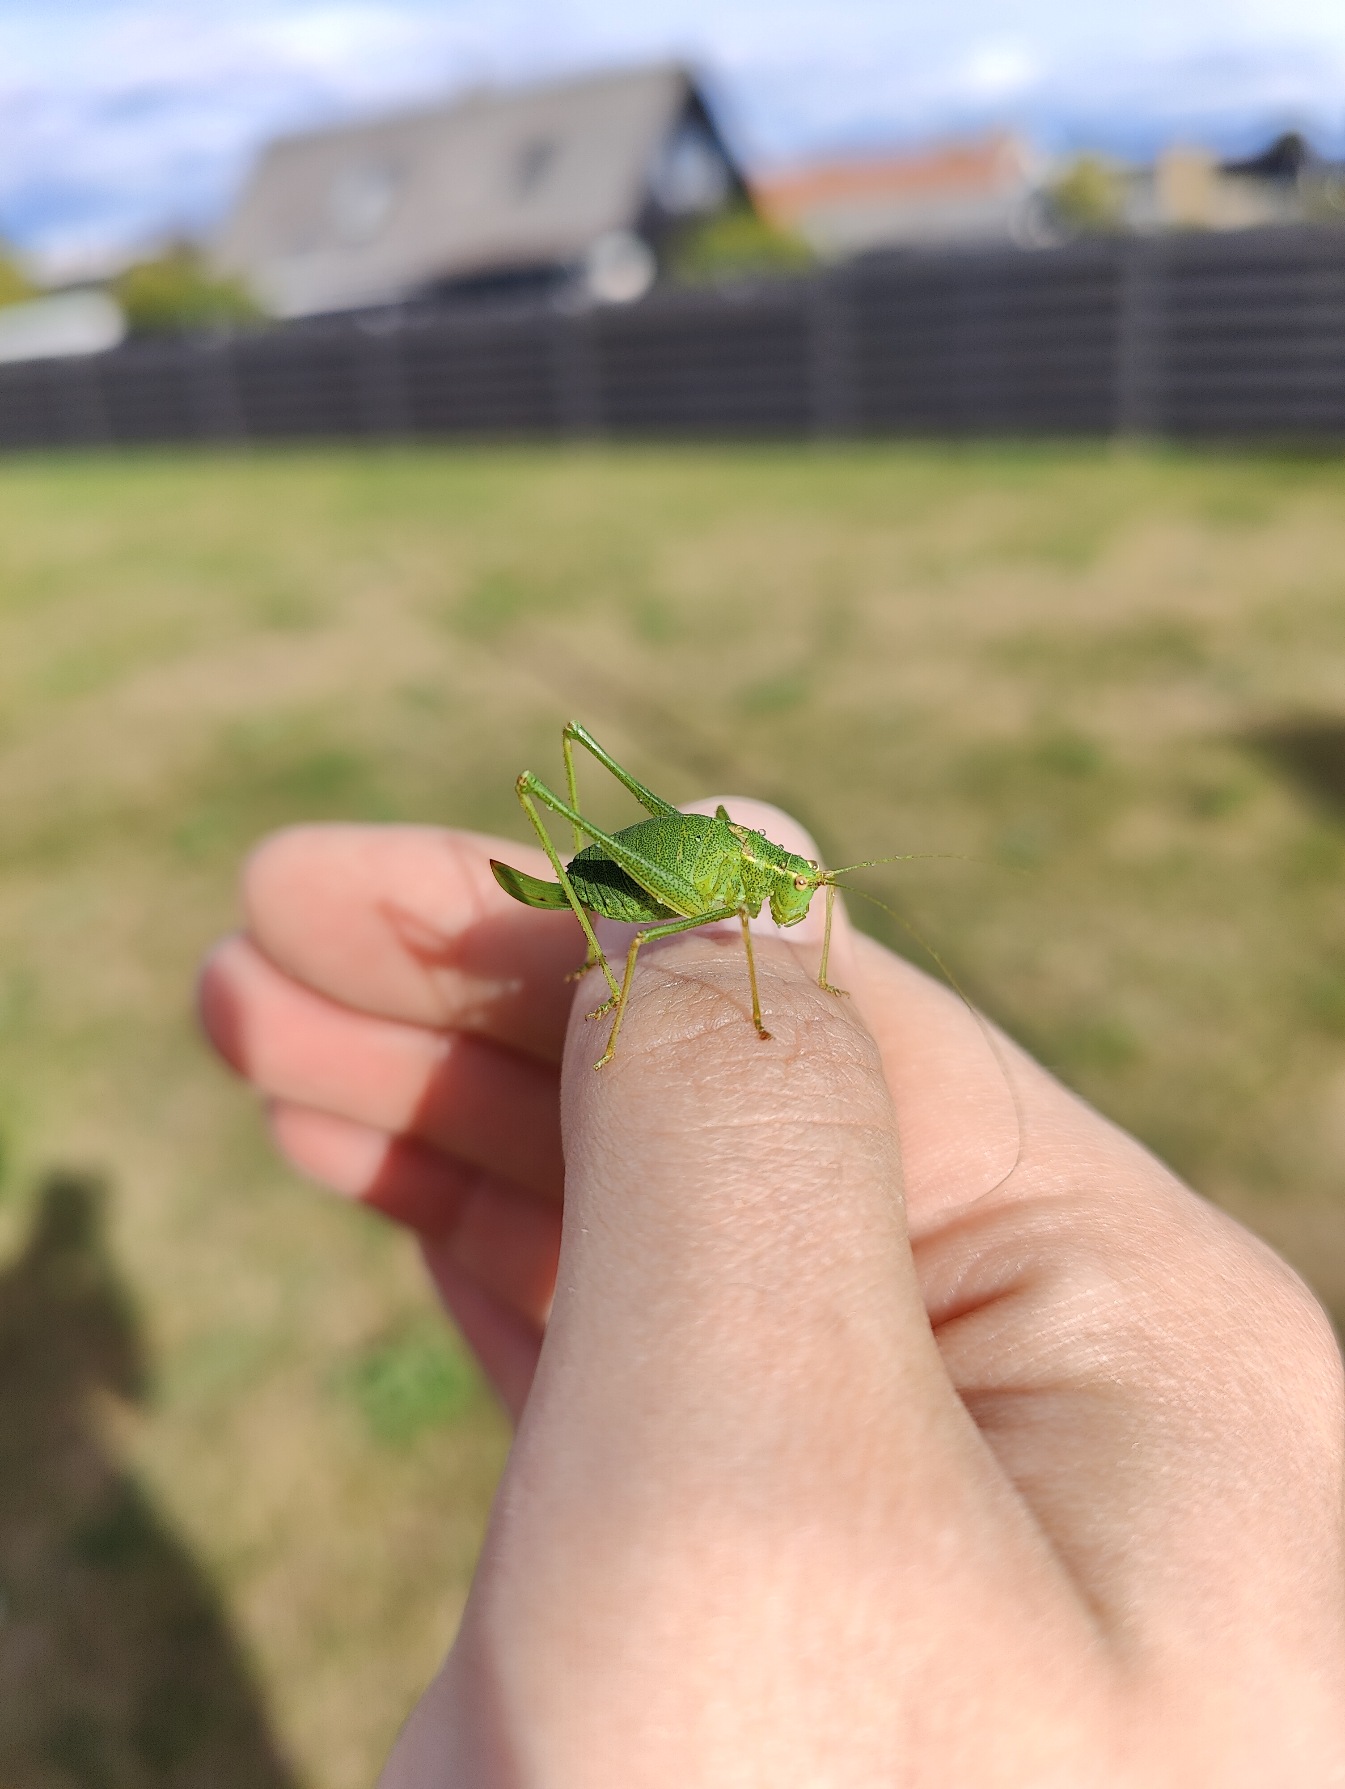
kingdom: Animalia
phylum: Arthropoda
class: Insecta
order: Orthoptera
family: Tettigoniidae
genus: Leptophyes
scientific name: Leptophyes punctatissima
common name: Krumknivgræshoppe
